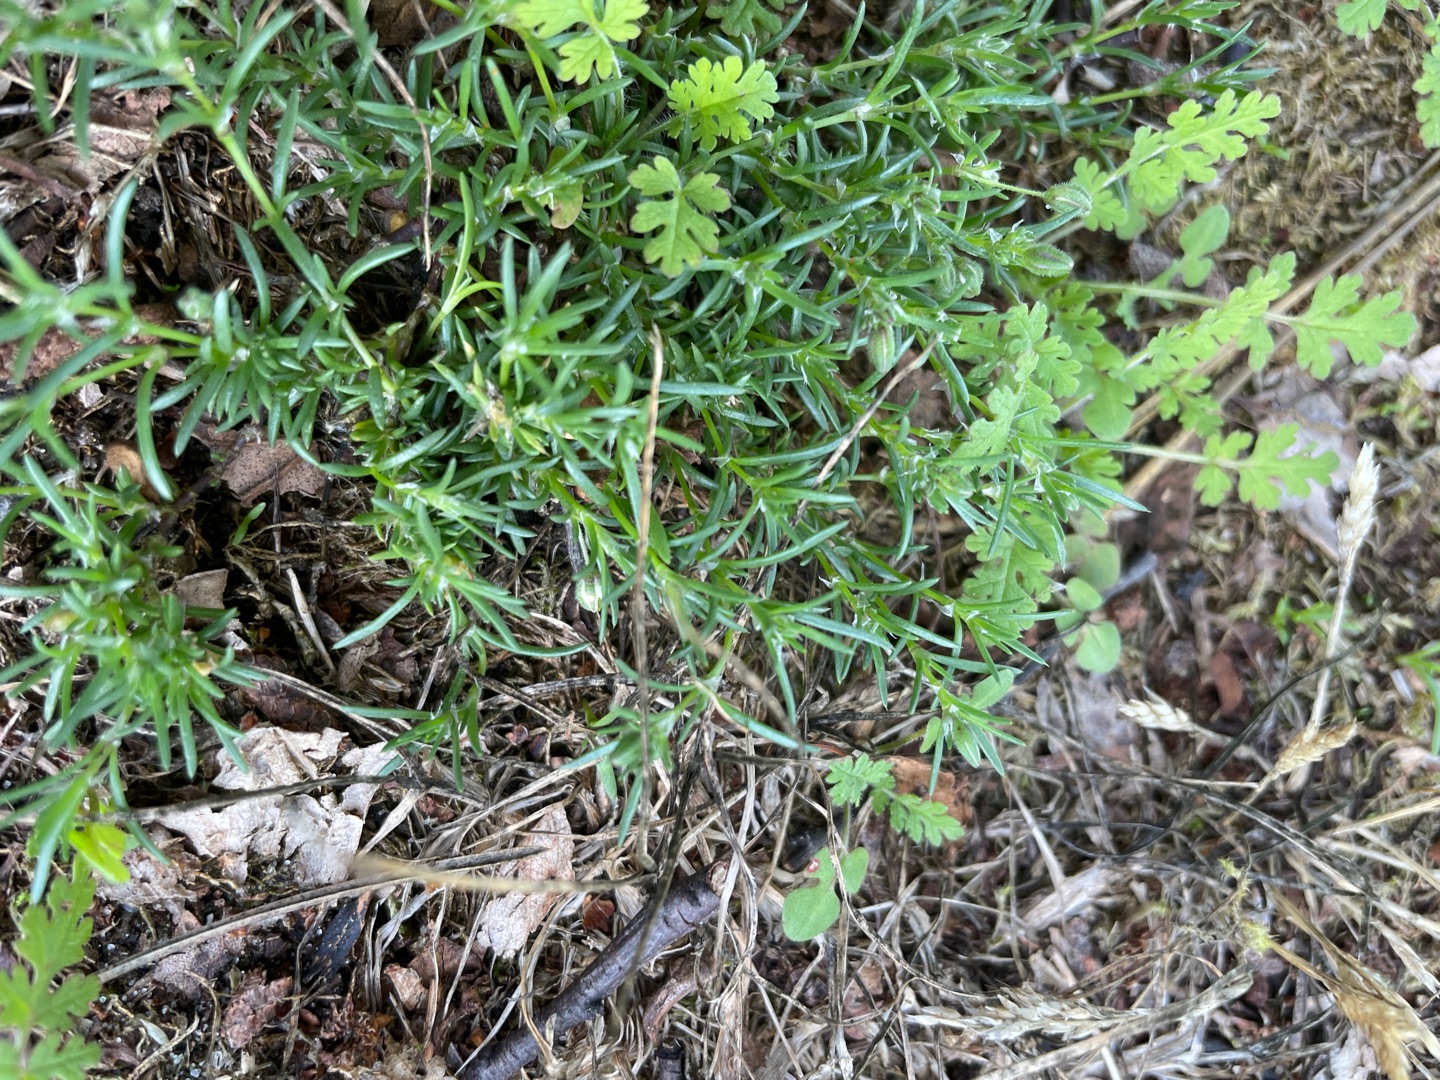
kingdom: Plantae
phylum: Tracheophyta
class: Magnoliopsida
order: Caryophyllales
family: Amaranthaceae
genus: Salsola
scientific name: Salsola kali
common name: Sodaurt
